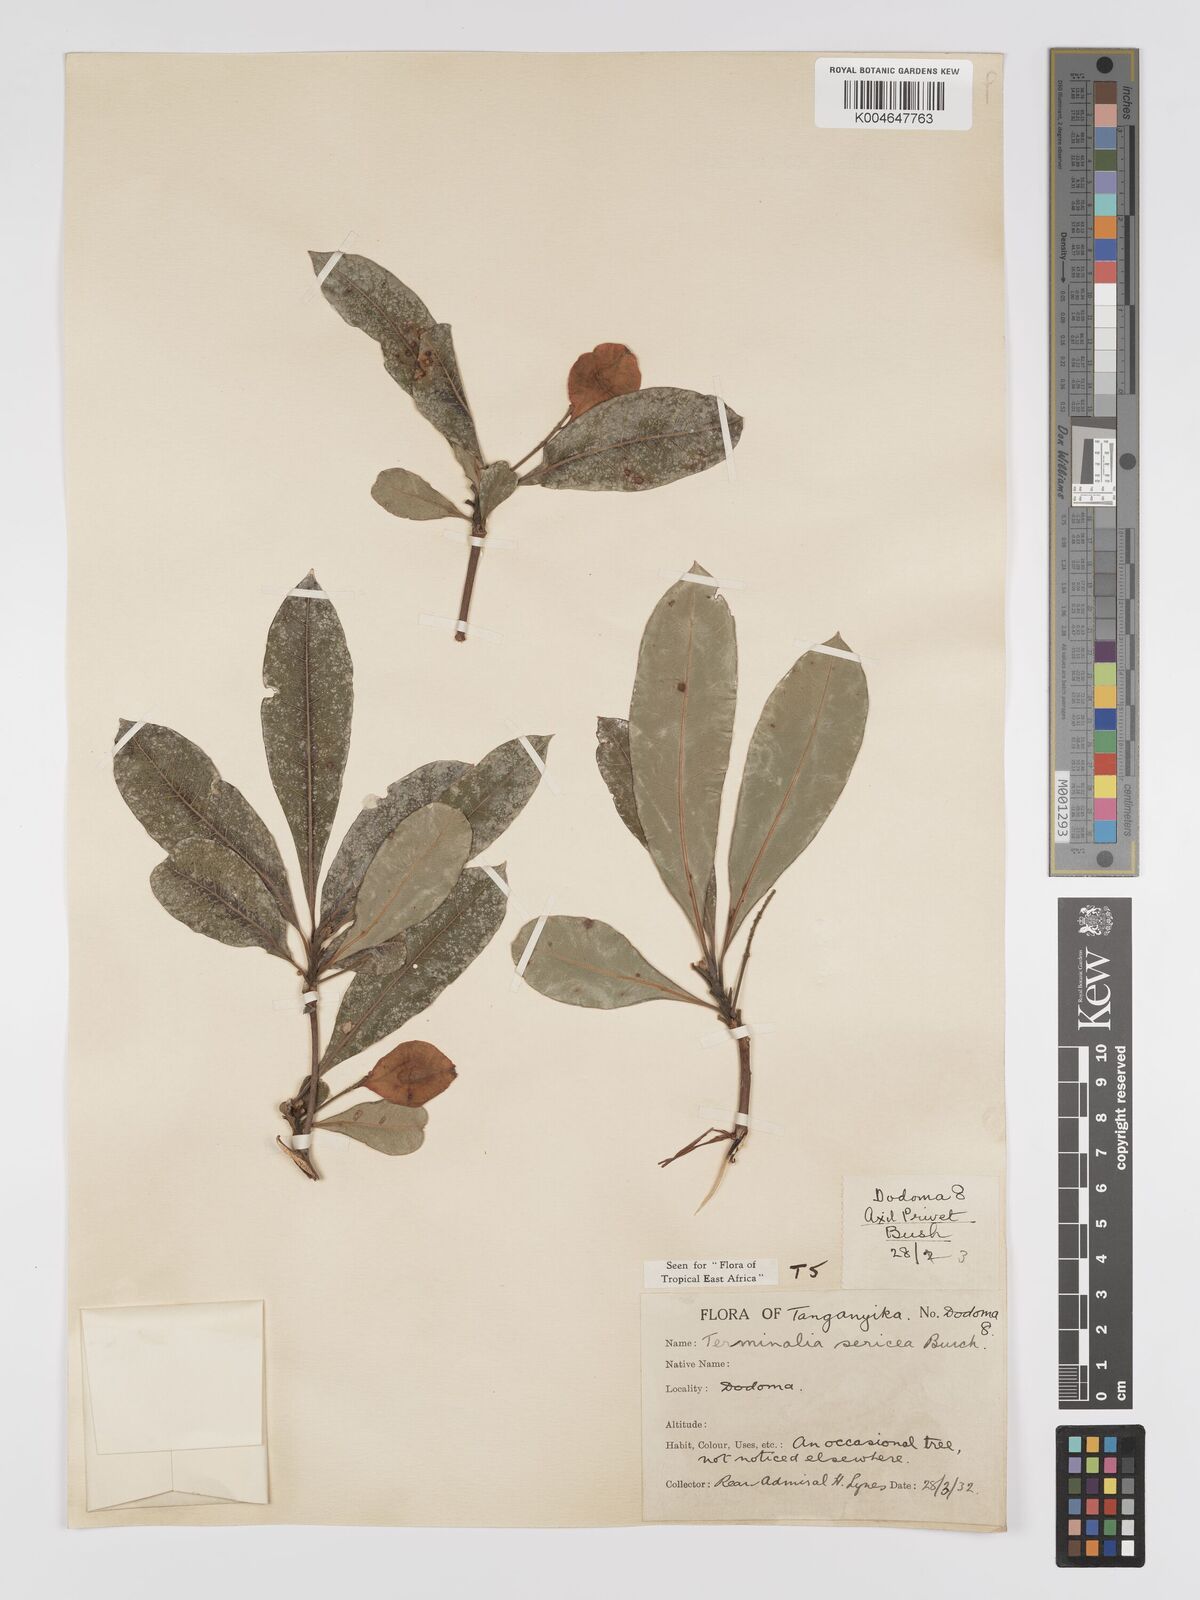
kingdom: Plantae
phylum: Tracheophyta
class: Magnoliopsida
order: Myrtales
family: Combretaceae
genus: Terminalia
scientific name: Terminalia
